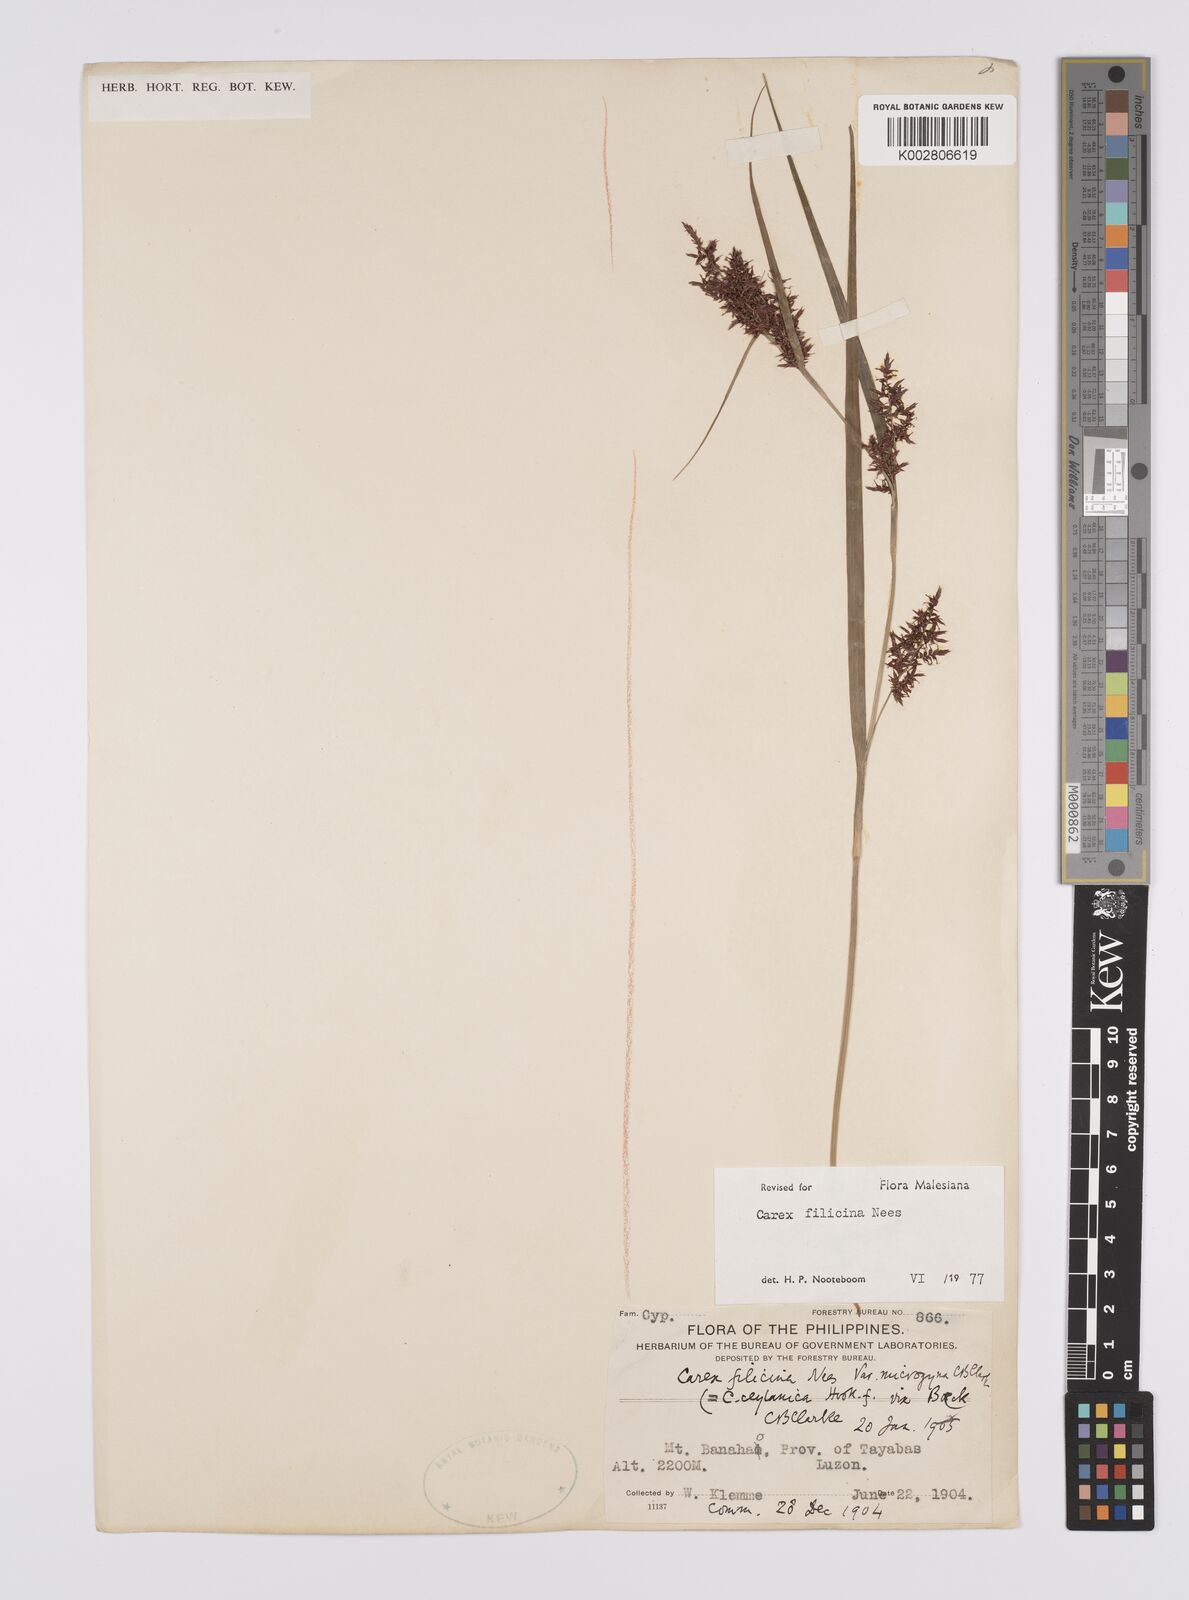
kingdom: Plantae
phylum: Tracheophyta
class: Liliopsida
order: Poales
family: Cyperaceae
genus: Carex
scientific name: Carex filicina
